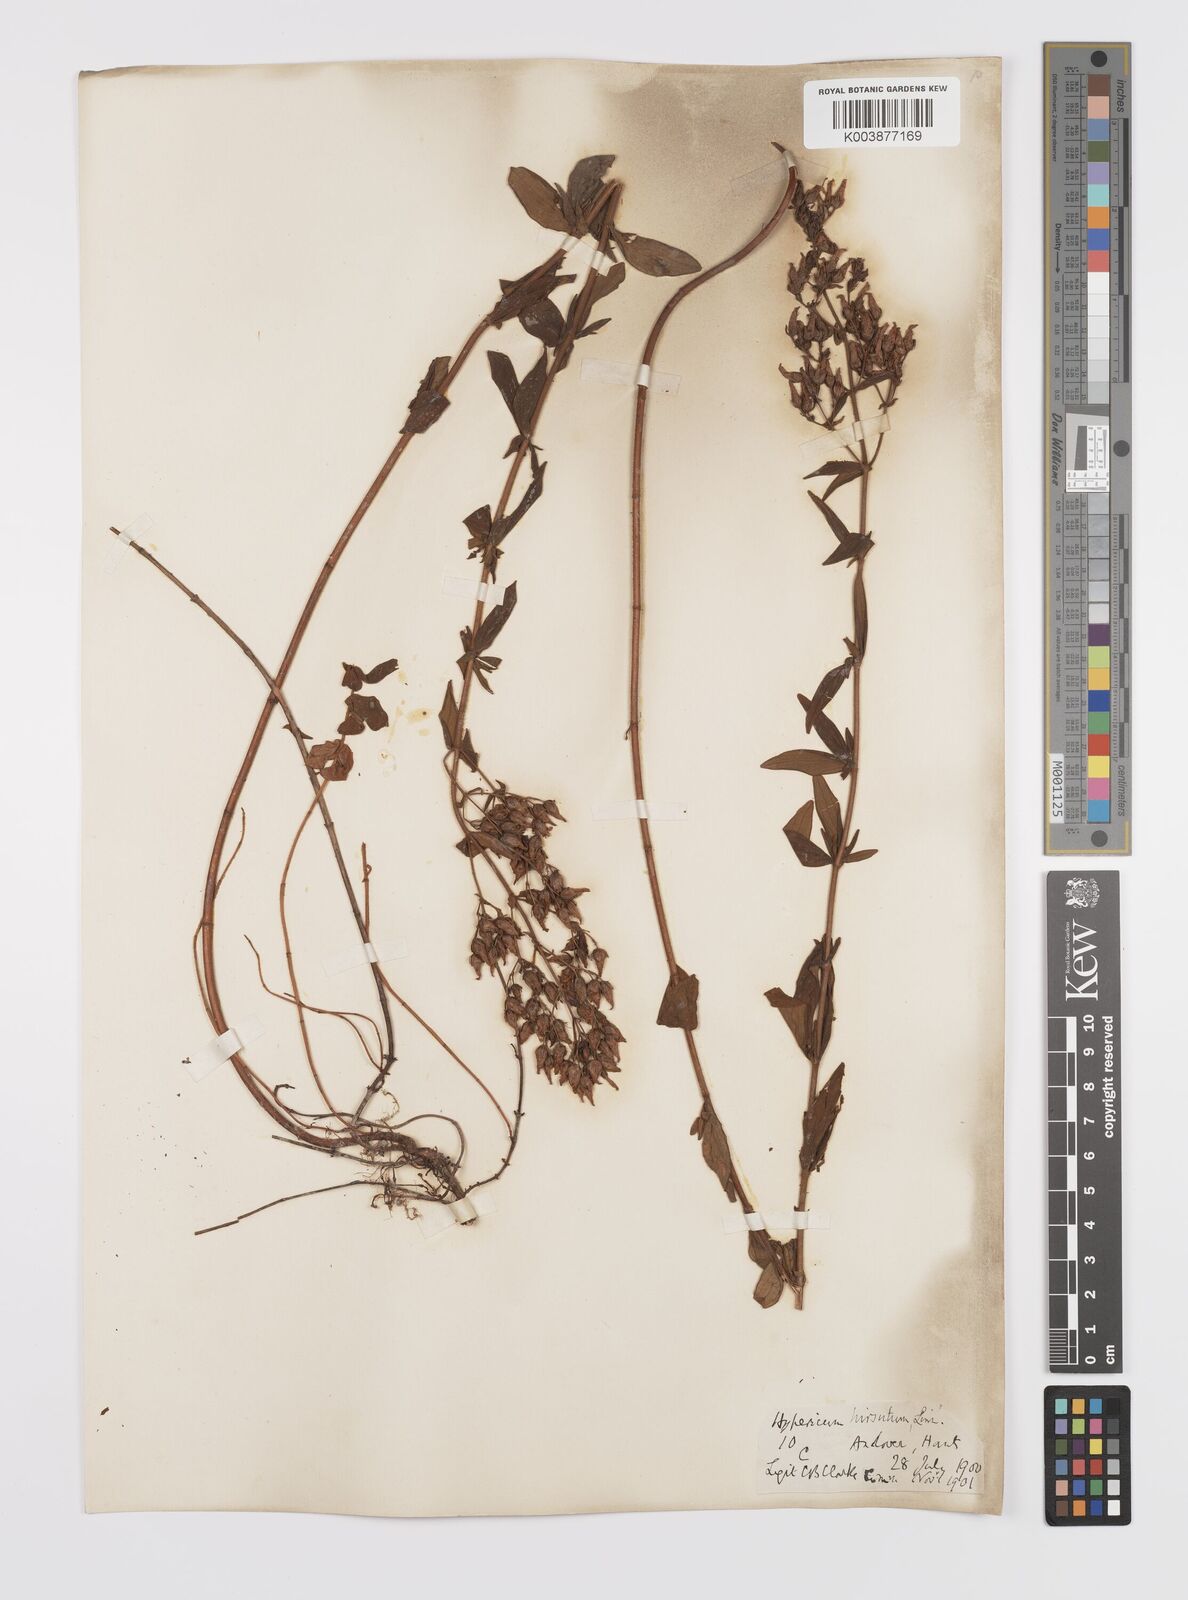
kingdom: Plantae
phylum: Tracheophyta
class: Magnoliopsida
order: Malpighiales
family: Hypericaceae
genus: Hypericum
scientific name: Hypericum hirsutum
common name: Hairy st. john's-wort
